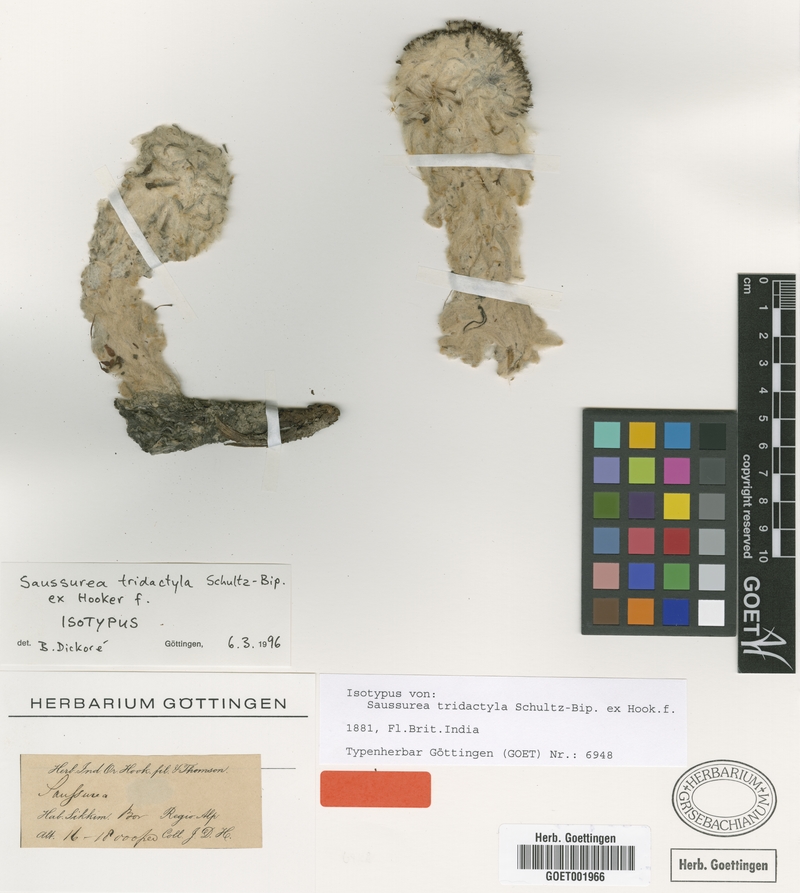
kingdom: Plantae
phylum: Tracheophyta
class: Magnoliopsida
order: Asterales
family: Asteraceae
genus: Saussurea
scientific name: Saussurea tridactyla
